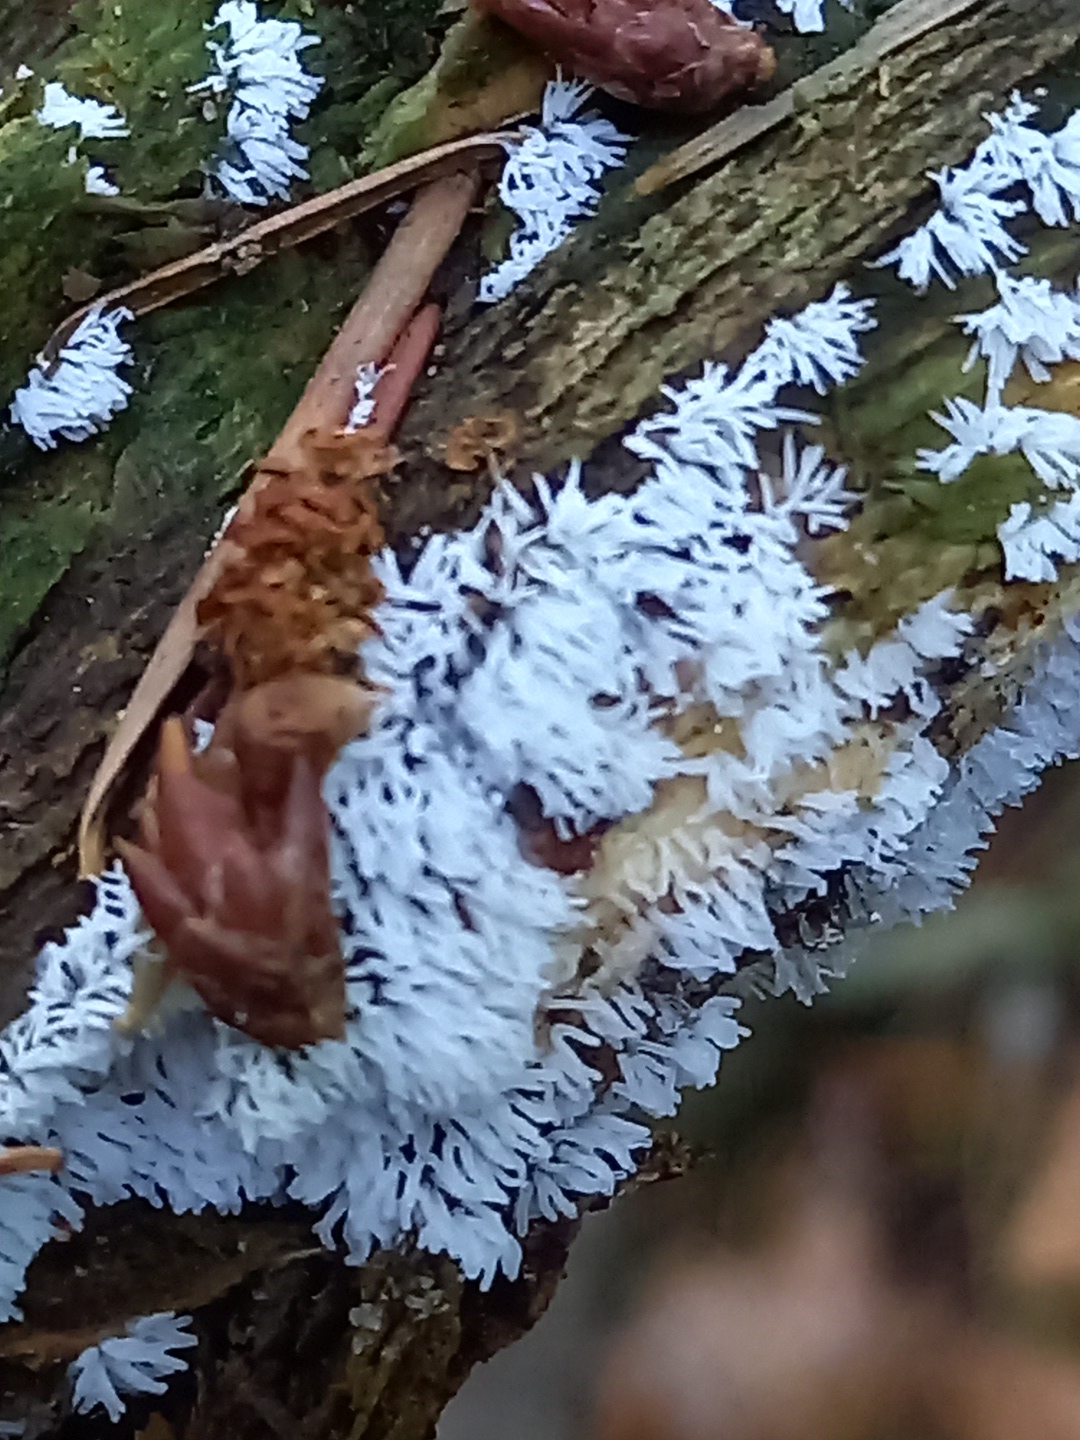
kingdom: Protozoa
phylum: Mycetozoa
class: Protosteliomycetes
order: Ceratiomyxales
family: Ceratiomyxaceae
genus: Ceratiomyxa
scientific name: Ceratiomyxa fruticulosa
